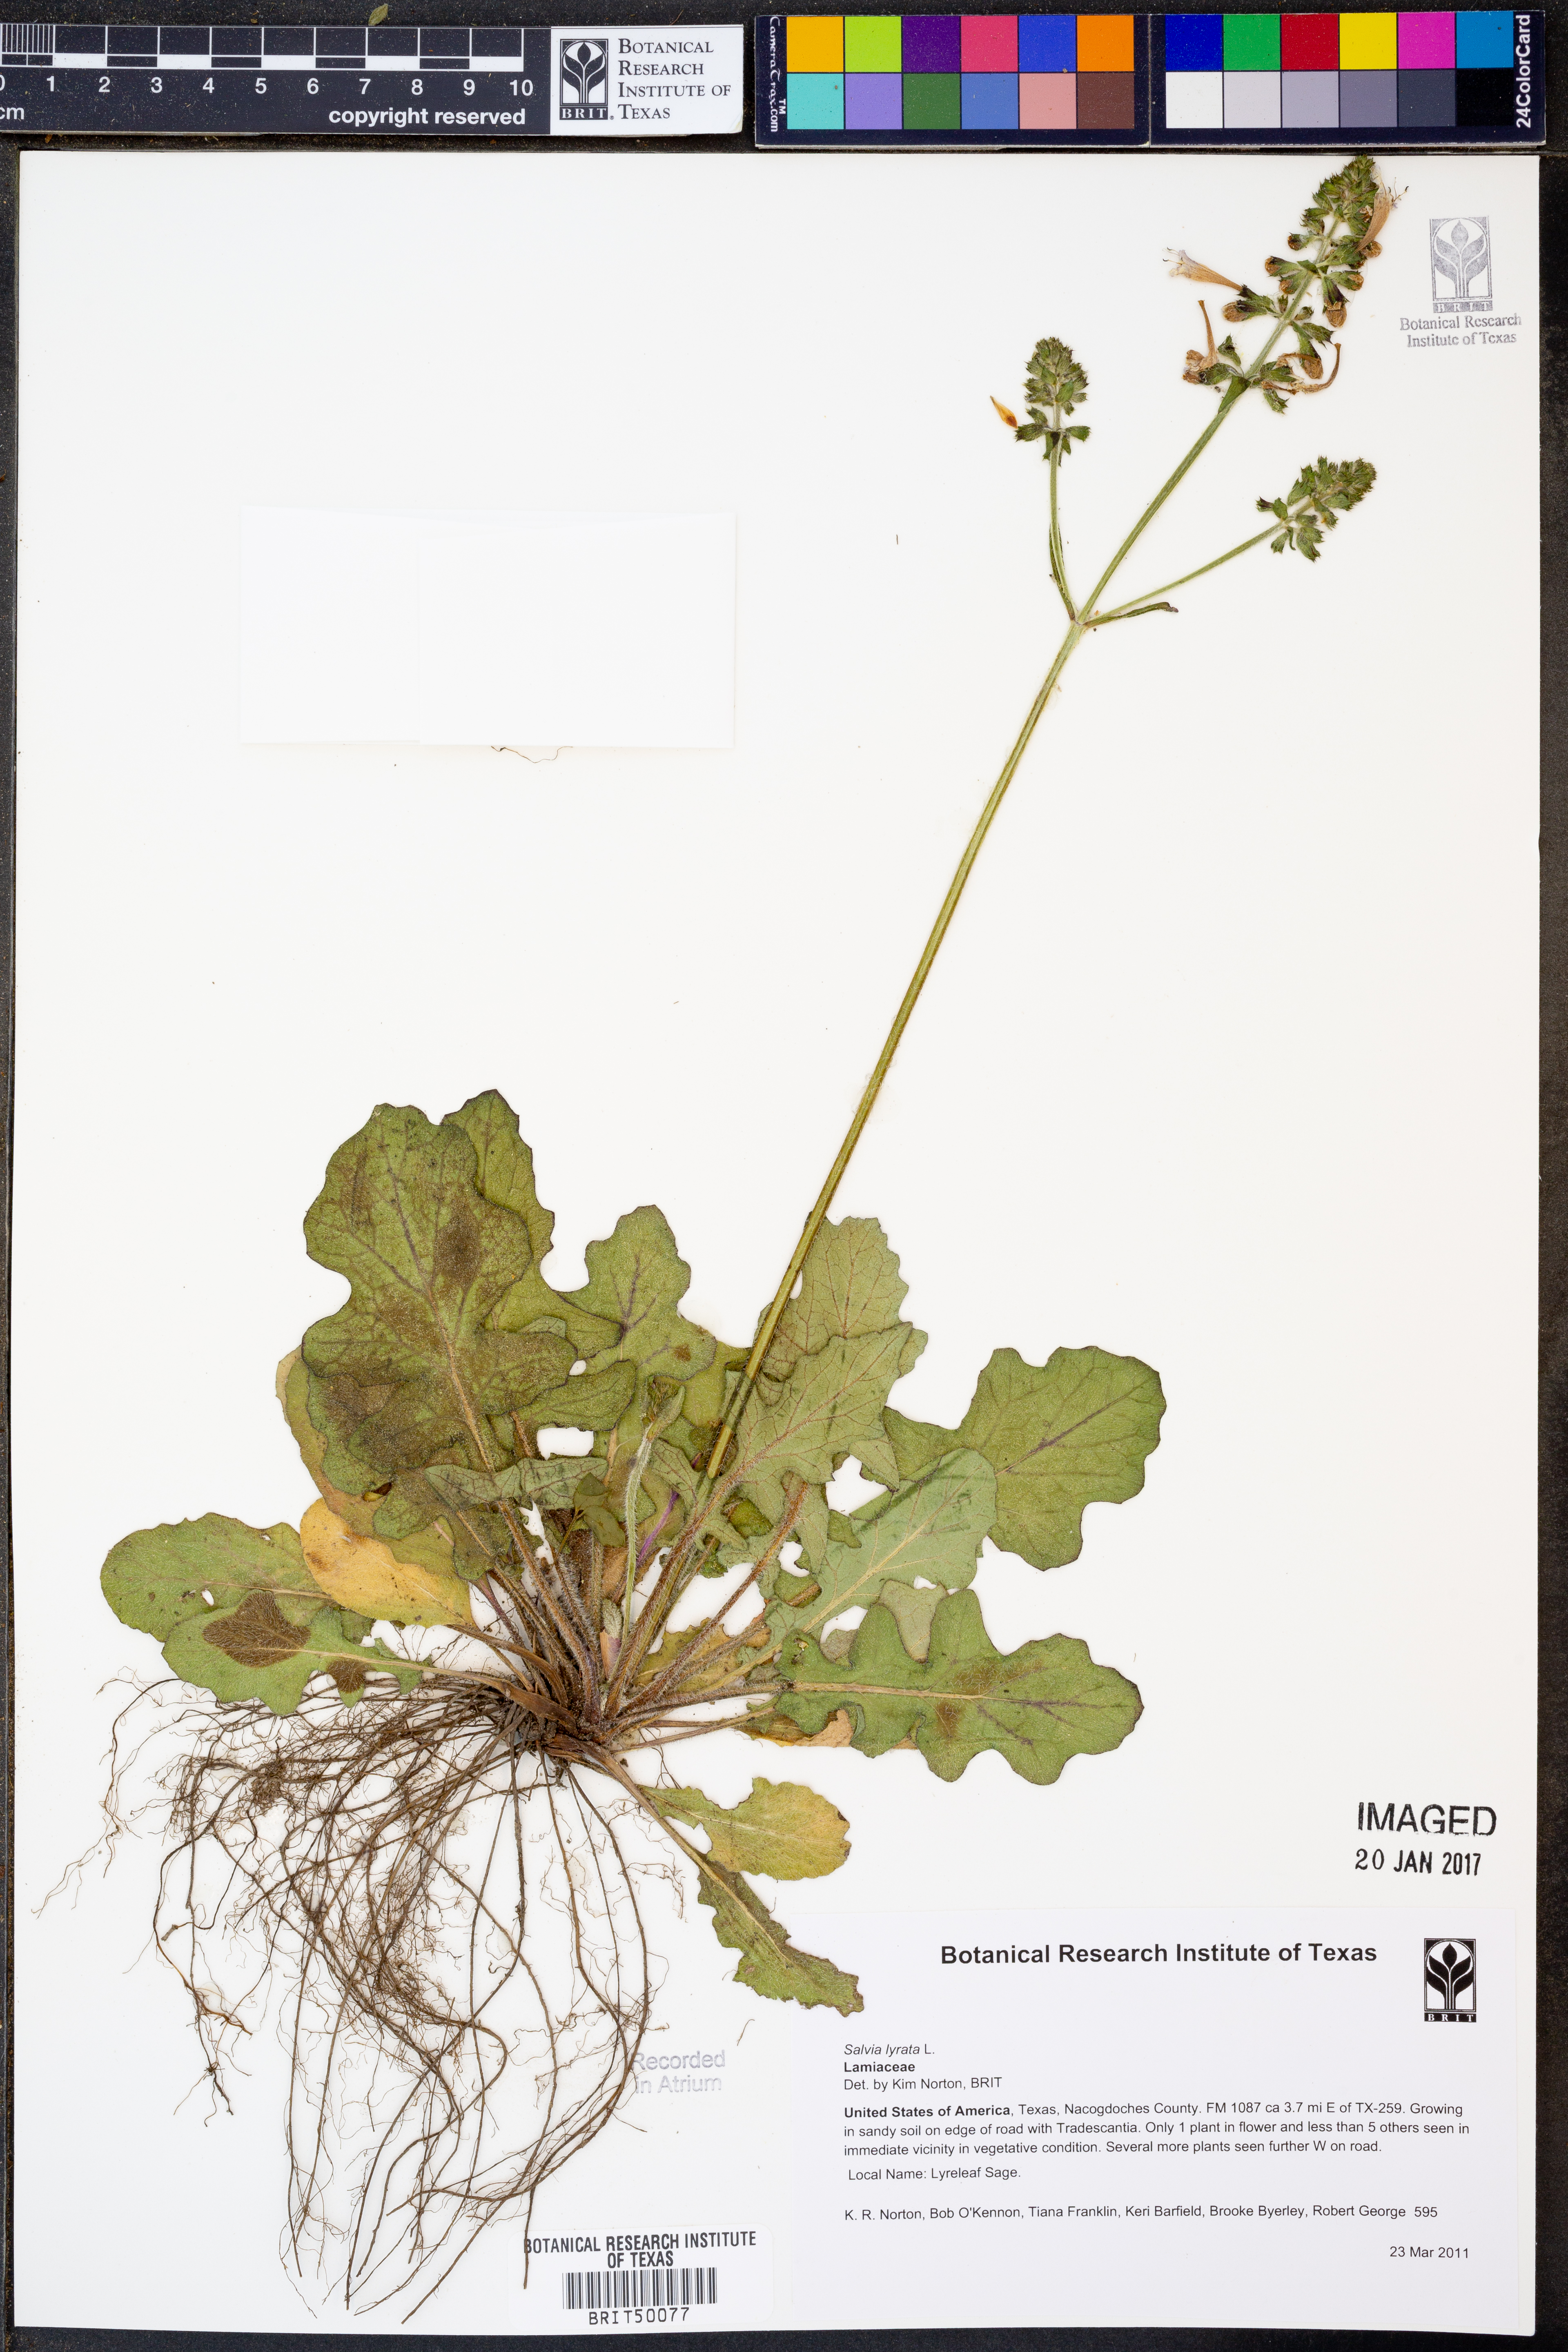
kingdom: Plantae
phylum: Tracheophyta
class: Magnoliopsida
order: Lamiales
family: Lamiaceae
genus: Salvia
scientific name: Salvia lyrata
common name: Cancerweed
